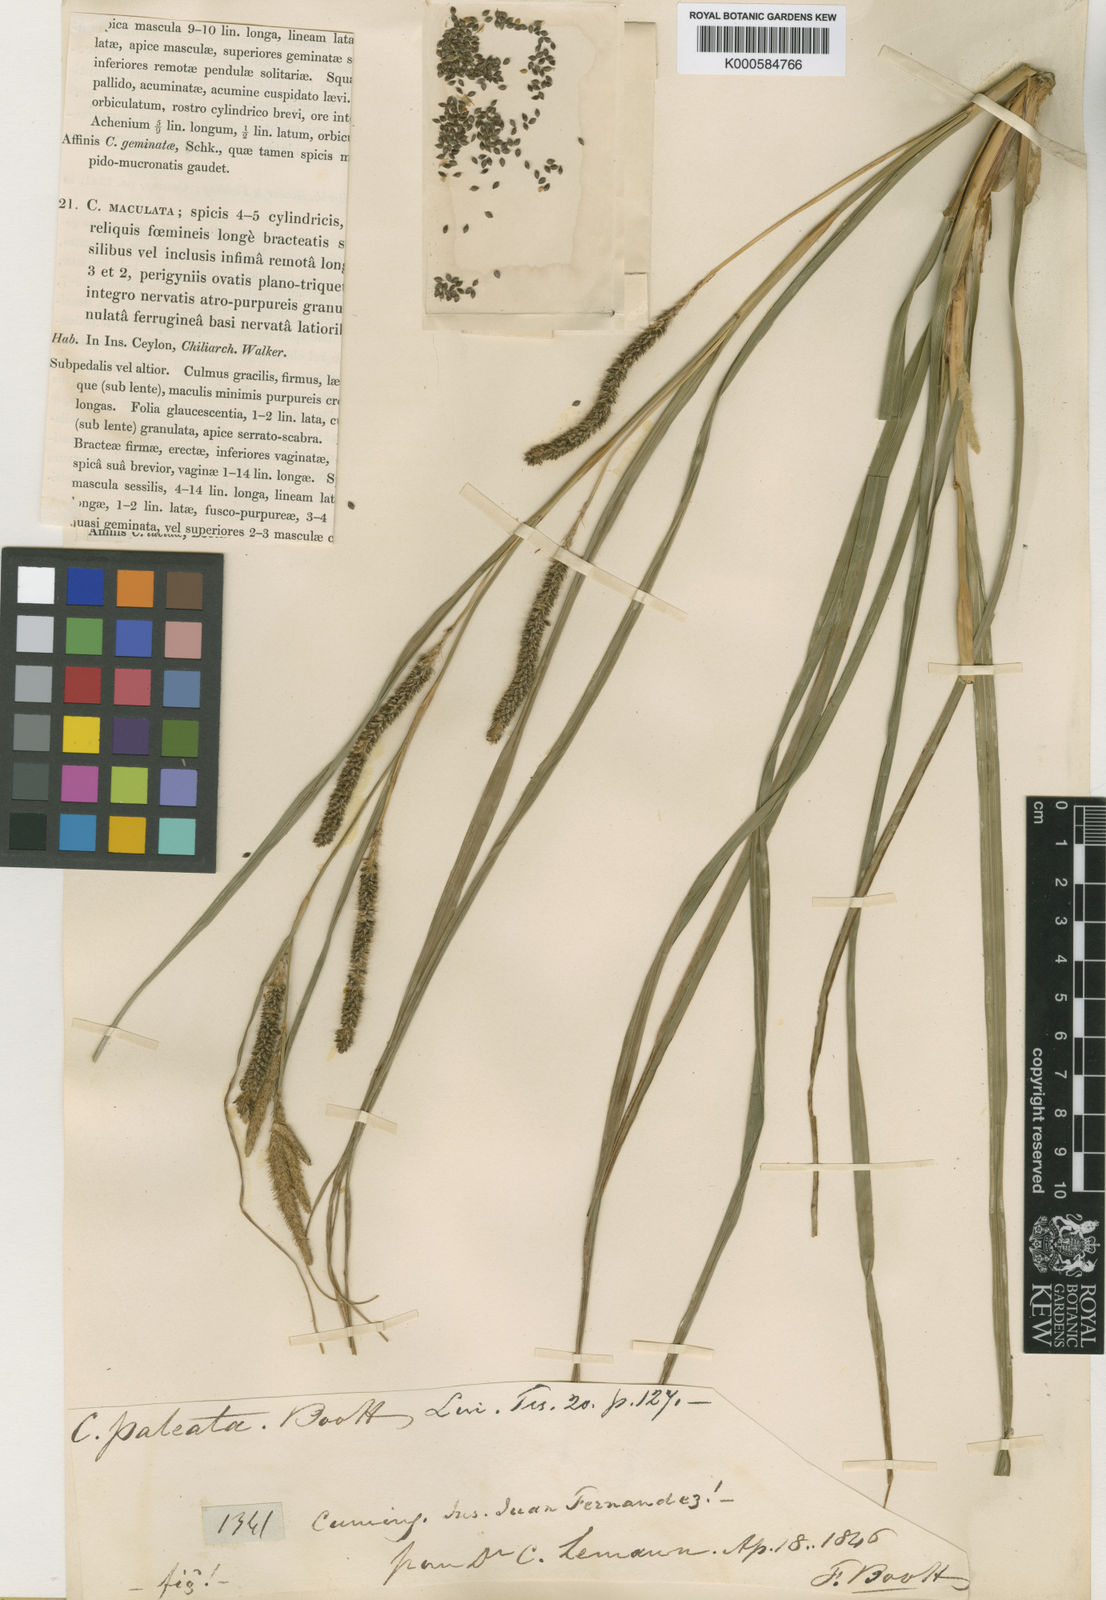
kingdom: Plantae
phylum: Tracheophyta
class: Liliopsida
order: Poales
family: Cyperaceae
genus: Carex
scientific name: Carex berteroniana
